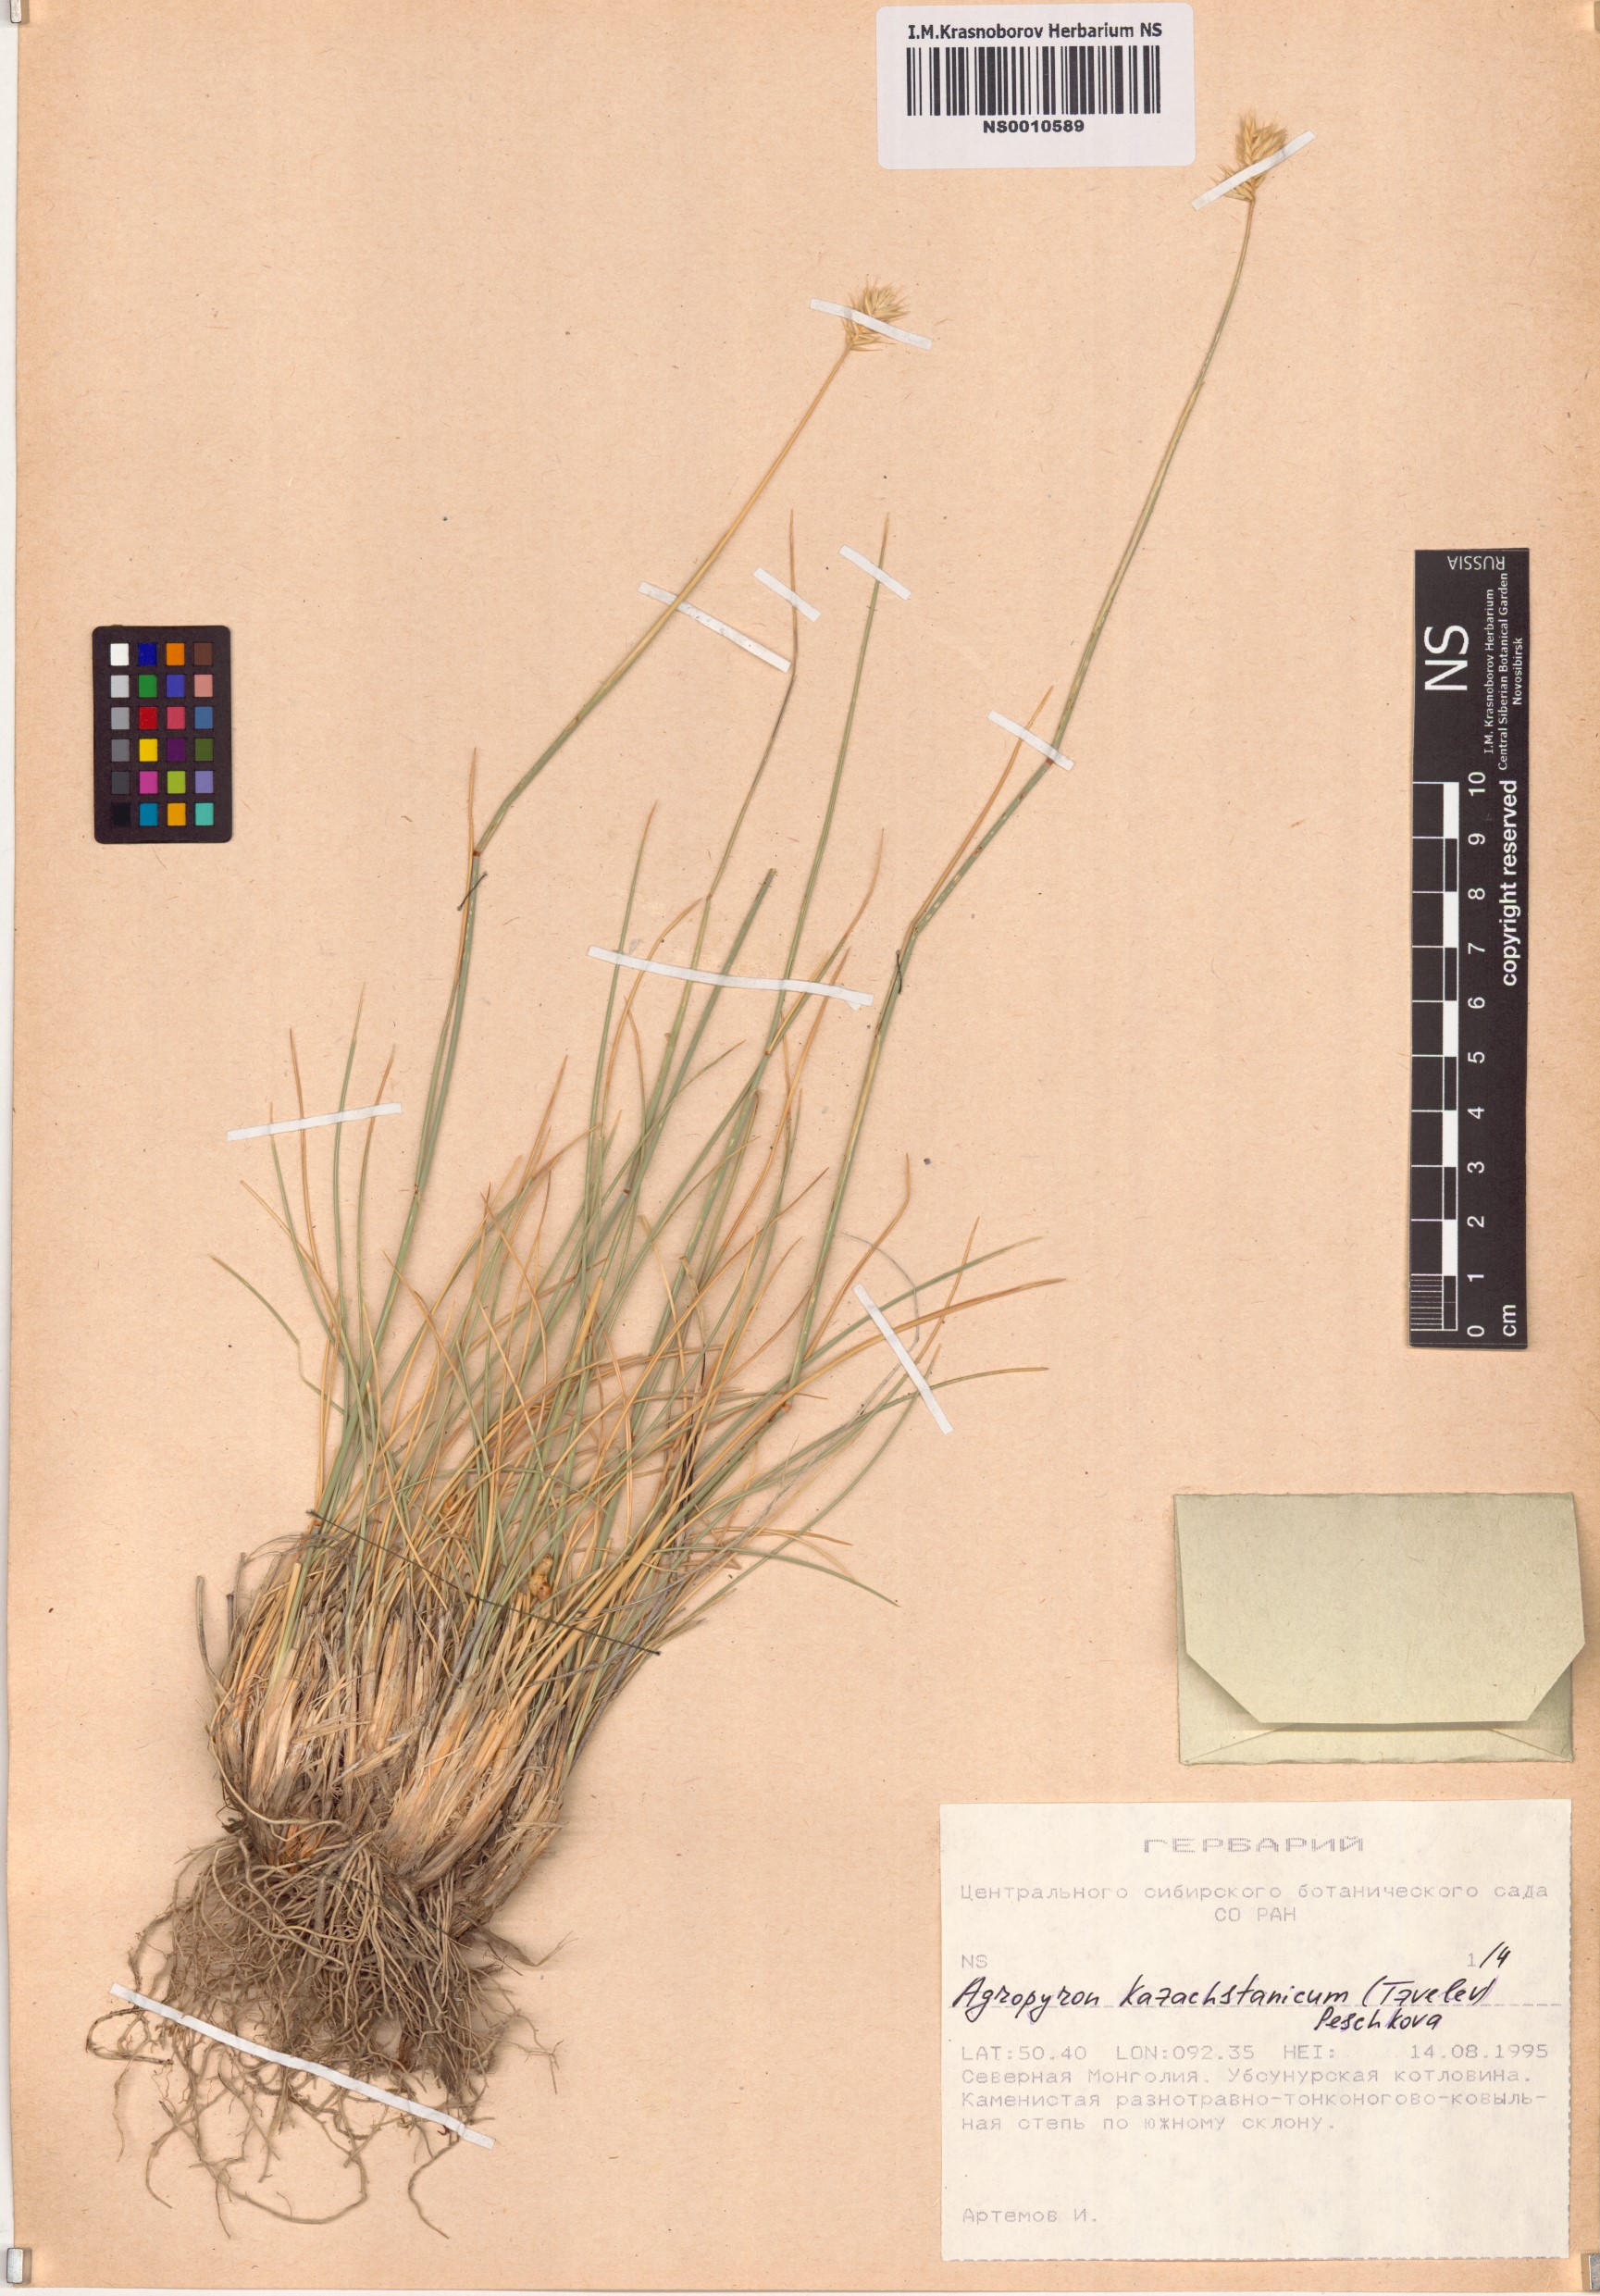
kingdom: Plantae
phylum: Tracheophyta
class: Liliopsida
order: Poales
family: Poaceae
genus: Agropyron
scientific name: Agropyron cristatum
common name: Crested wheatgrass
